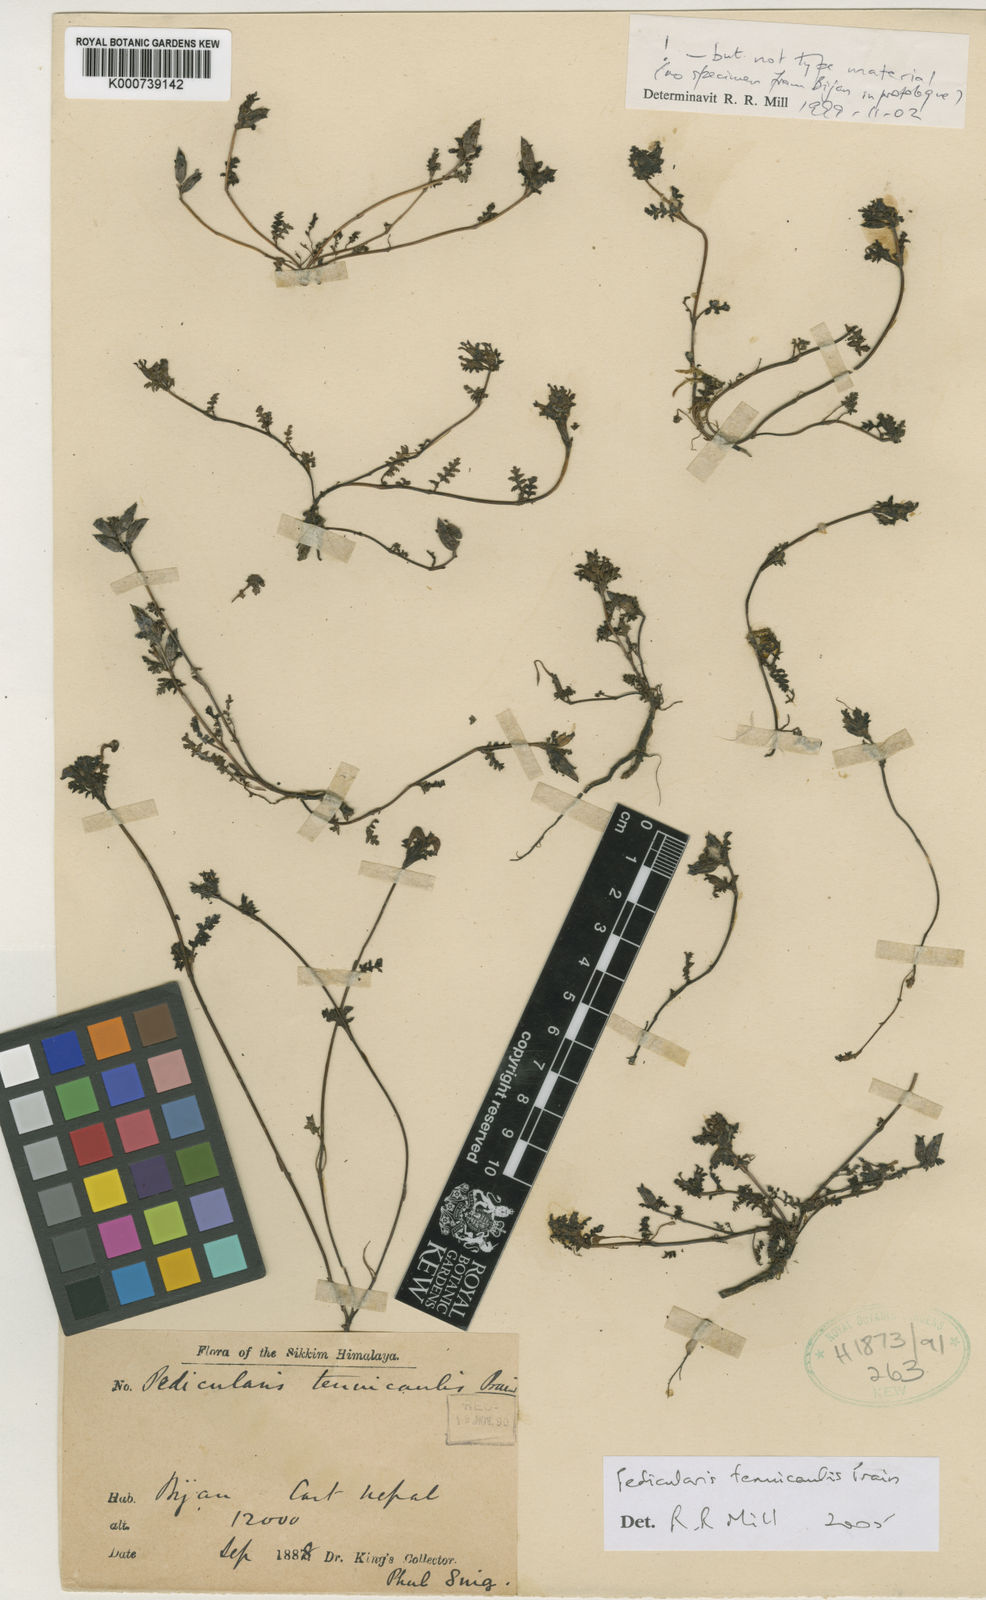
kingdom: Plantae
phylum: Tracheophyta
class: Magnoliopsida
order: Lamiales
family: Orobanchaceae
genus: Pedicularis
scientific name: Pedicularis tenuicaulis
